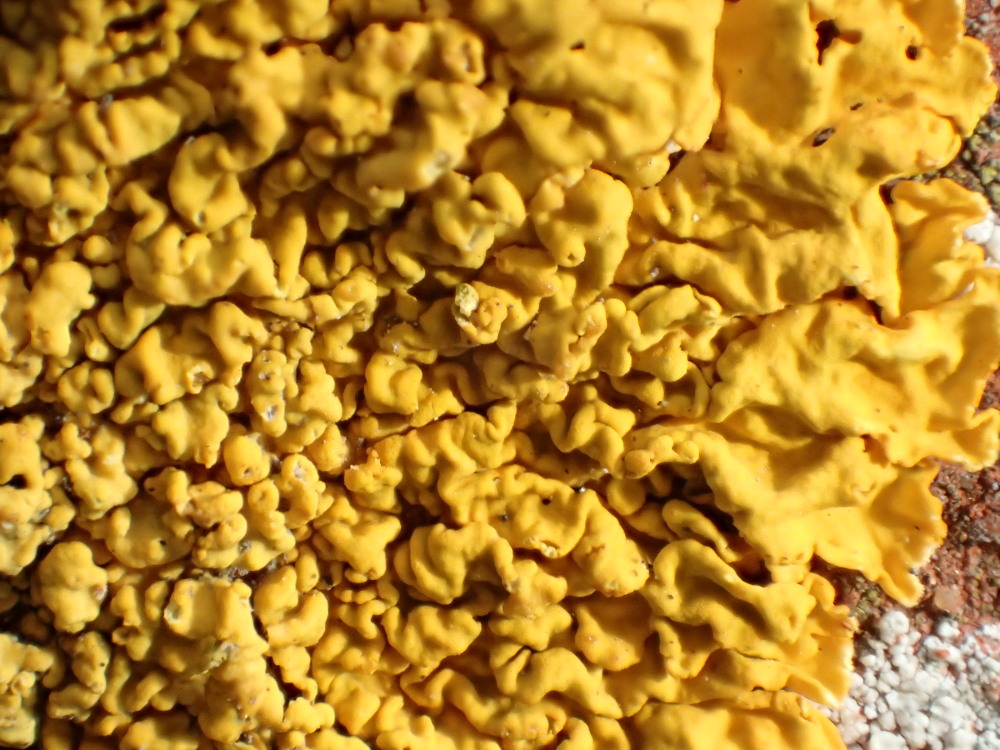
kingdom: Fungi
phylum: Ascomycota
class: Lecanoromycetes
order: Teloschistales
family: Teloschistaceae
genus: Xanthoria
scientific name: Xanthoria calcicola
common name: vortet væggelav
